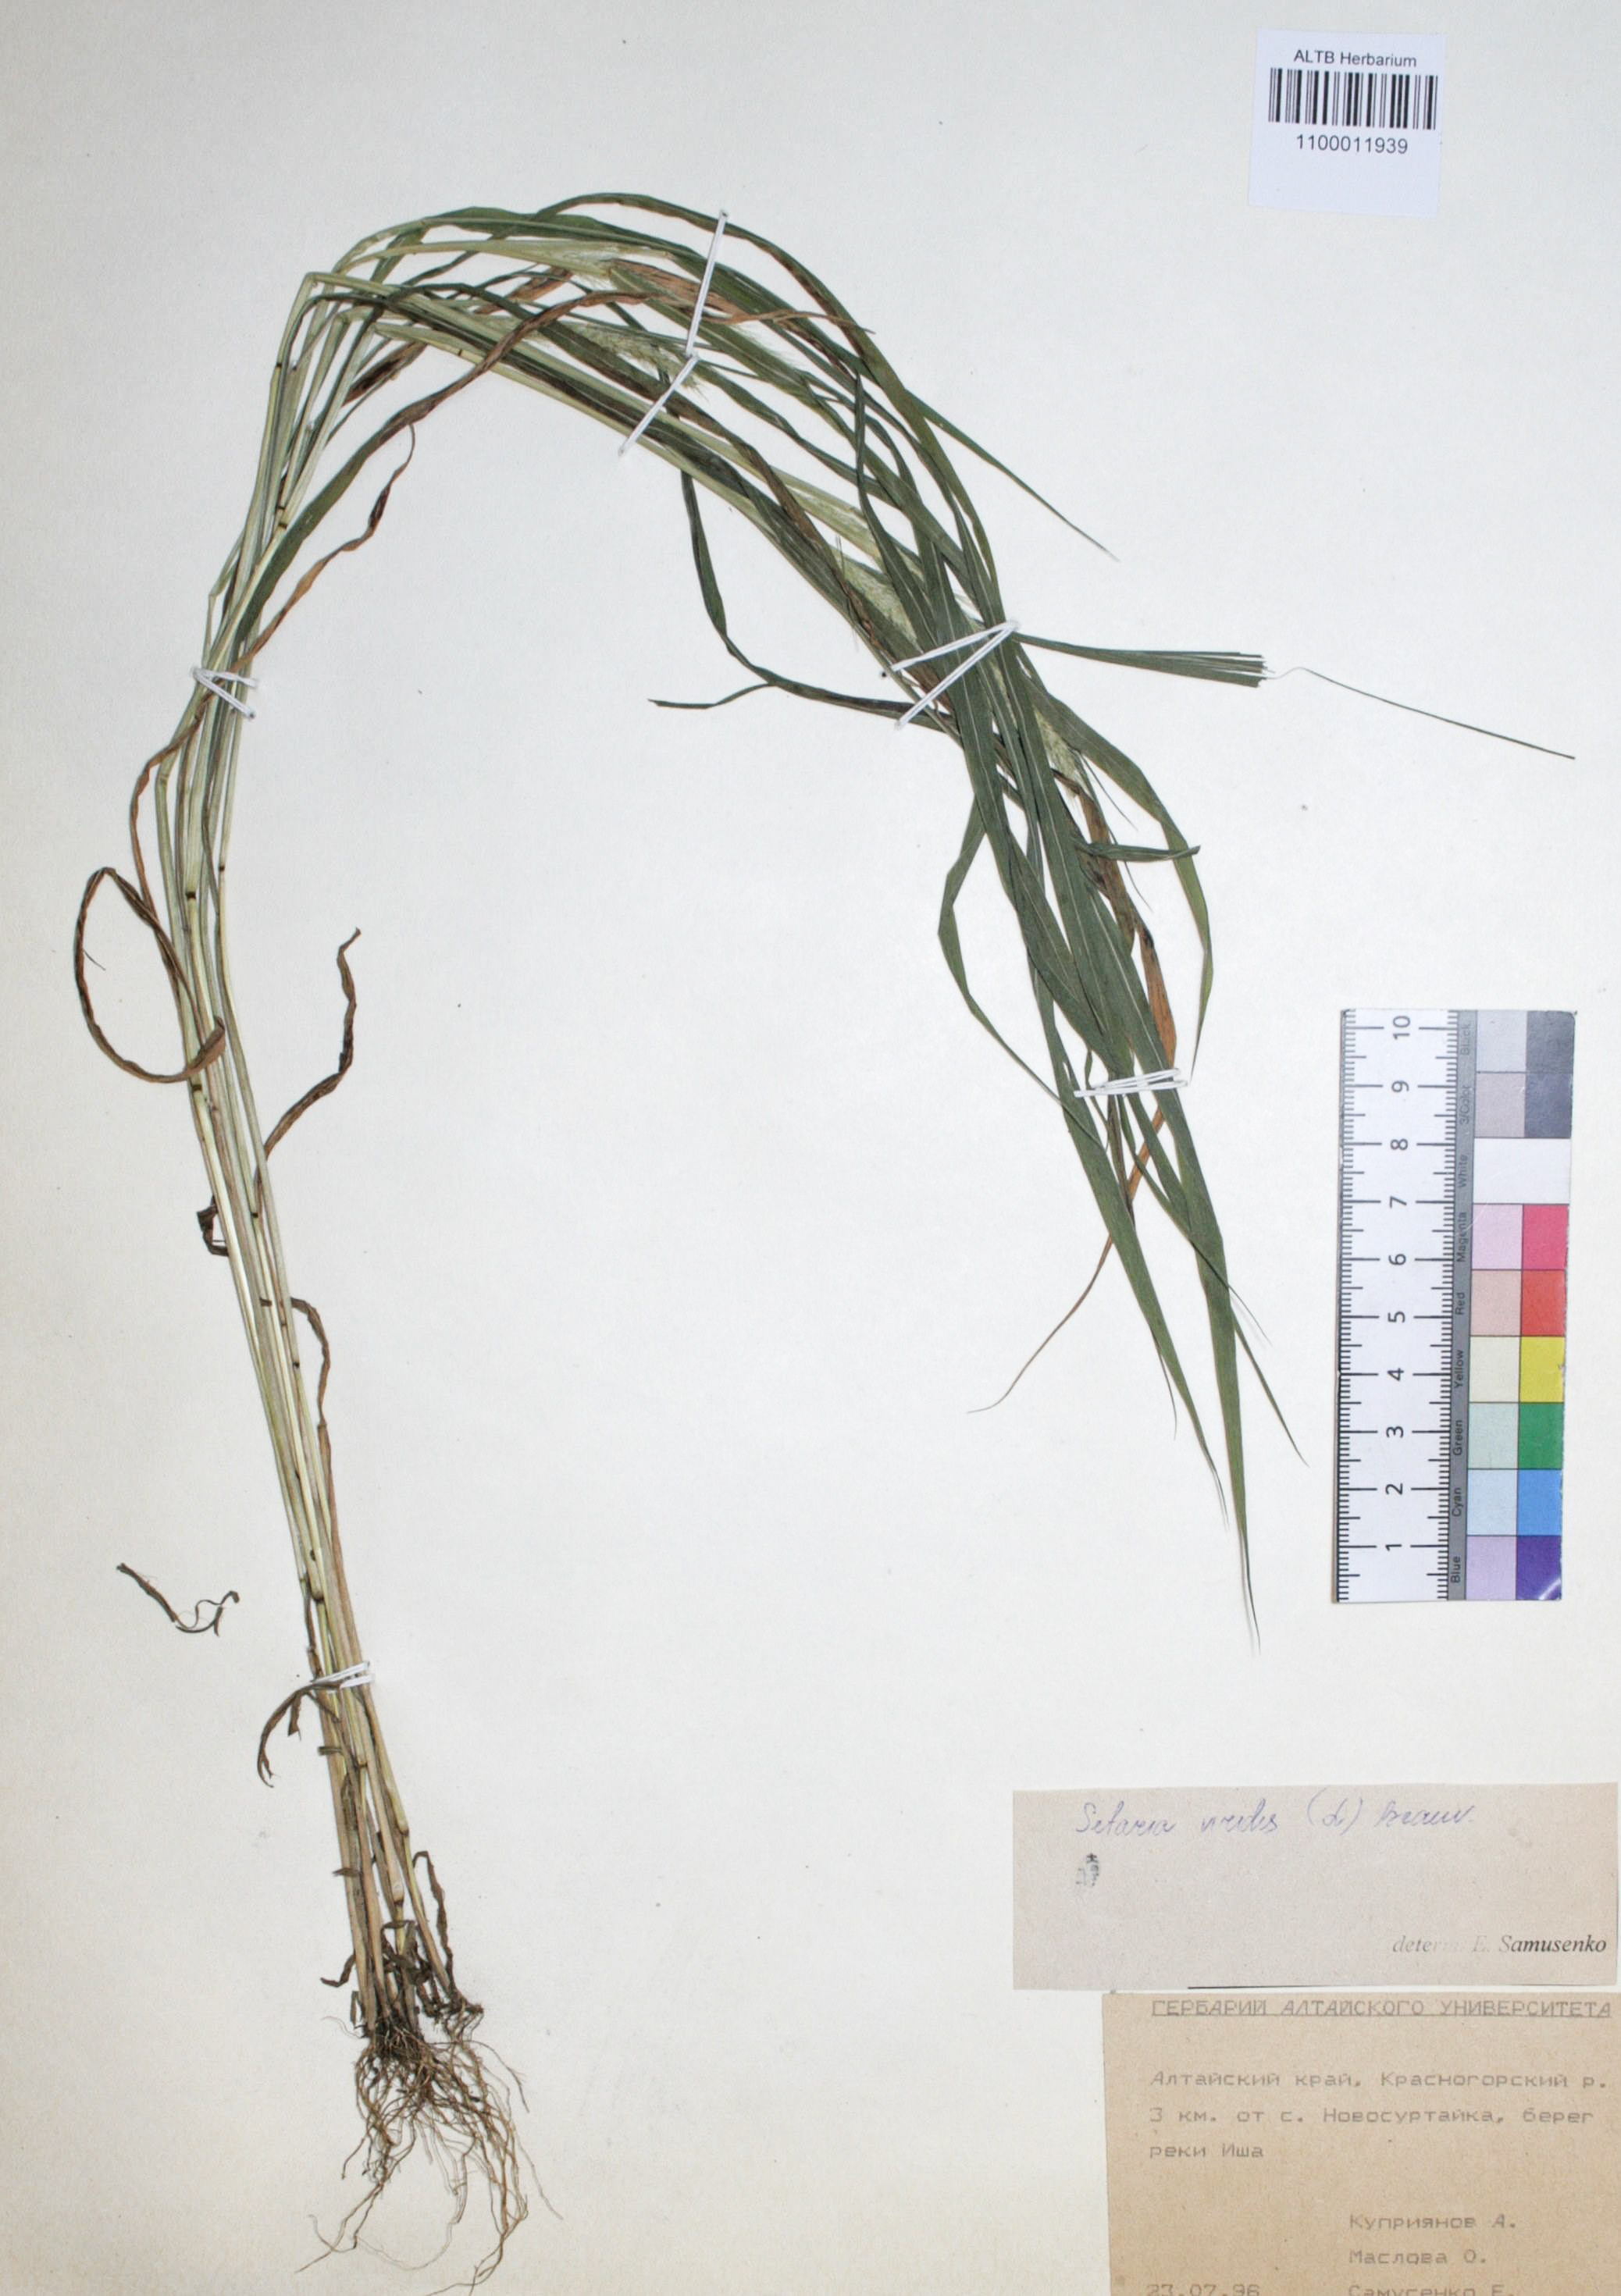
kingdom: Plantae
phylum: Tracheophyta
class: Liliopsida
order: Poales
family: Poaceae
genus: Setaria
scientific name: Setaria faberi
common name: Nodding bristle-grass
